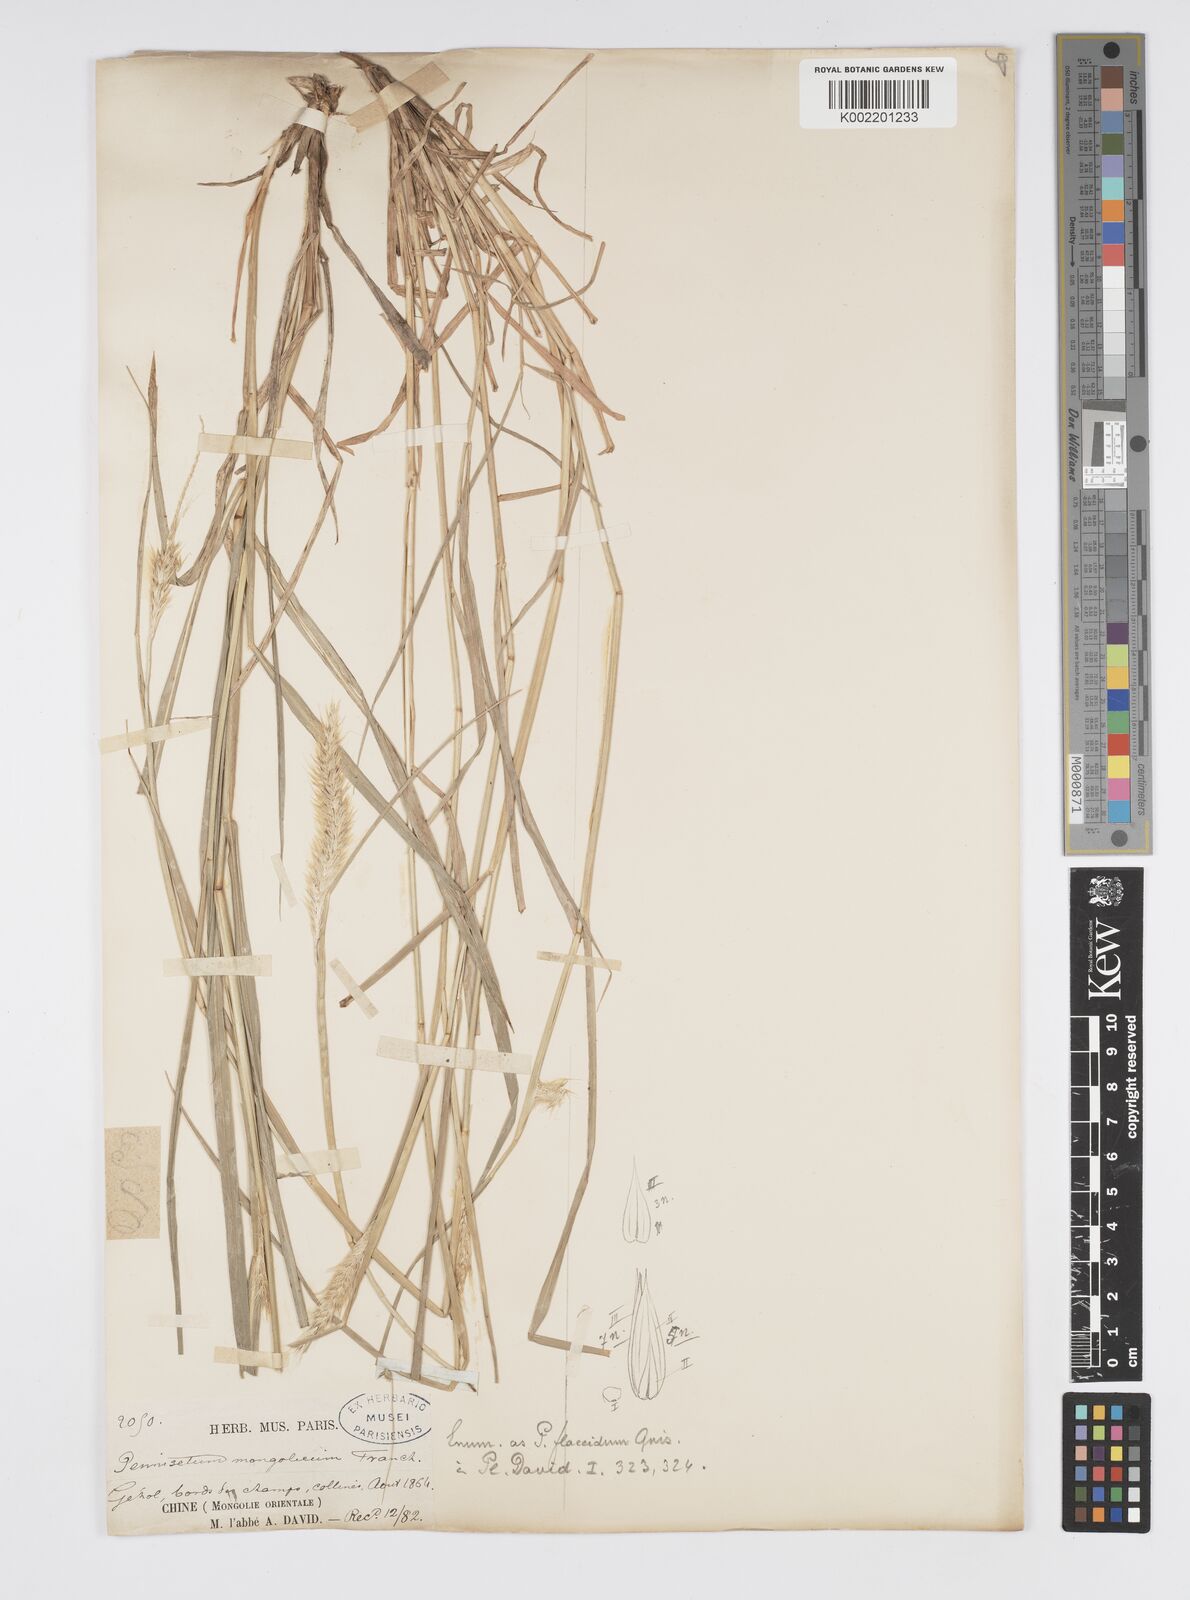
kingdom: Plantae
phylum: Tracheophyta
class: Liliopsida
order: Poales
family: Poaceae
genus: Cenchrus
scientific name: Cenchrus flaccidus
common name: Flaccid grass
